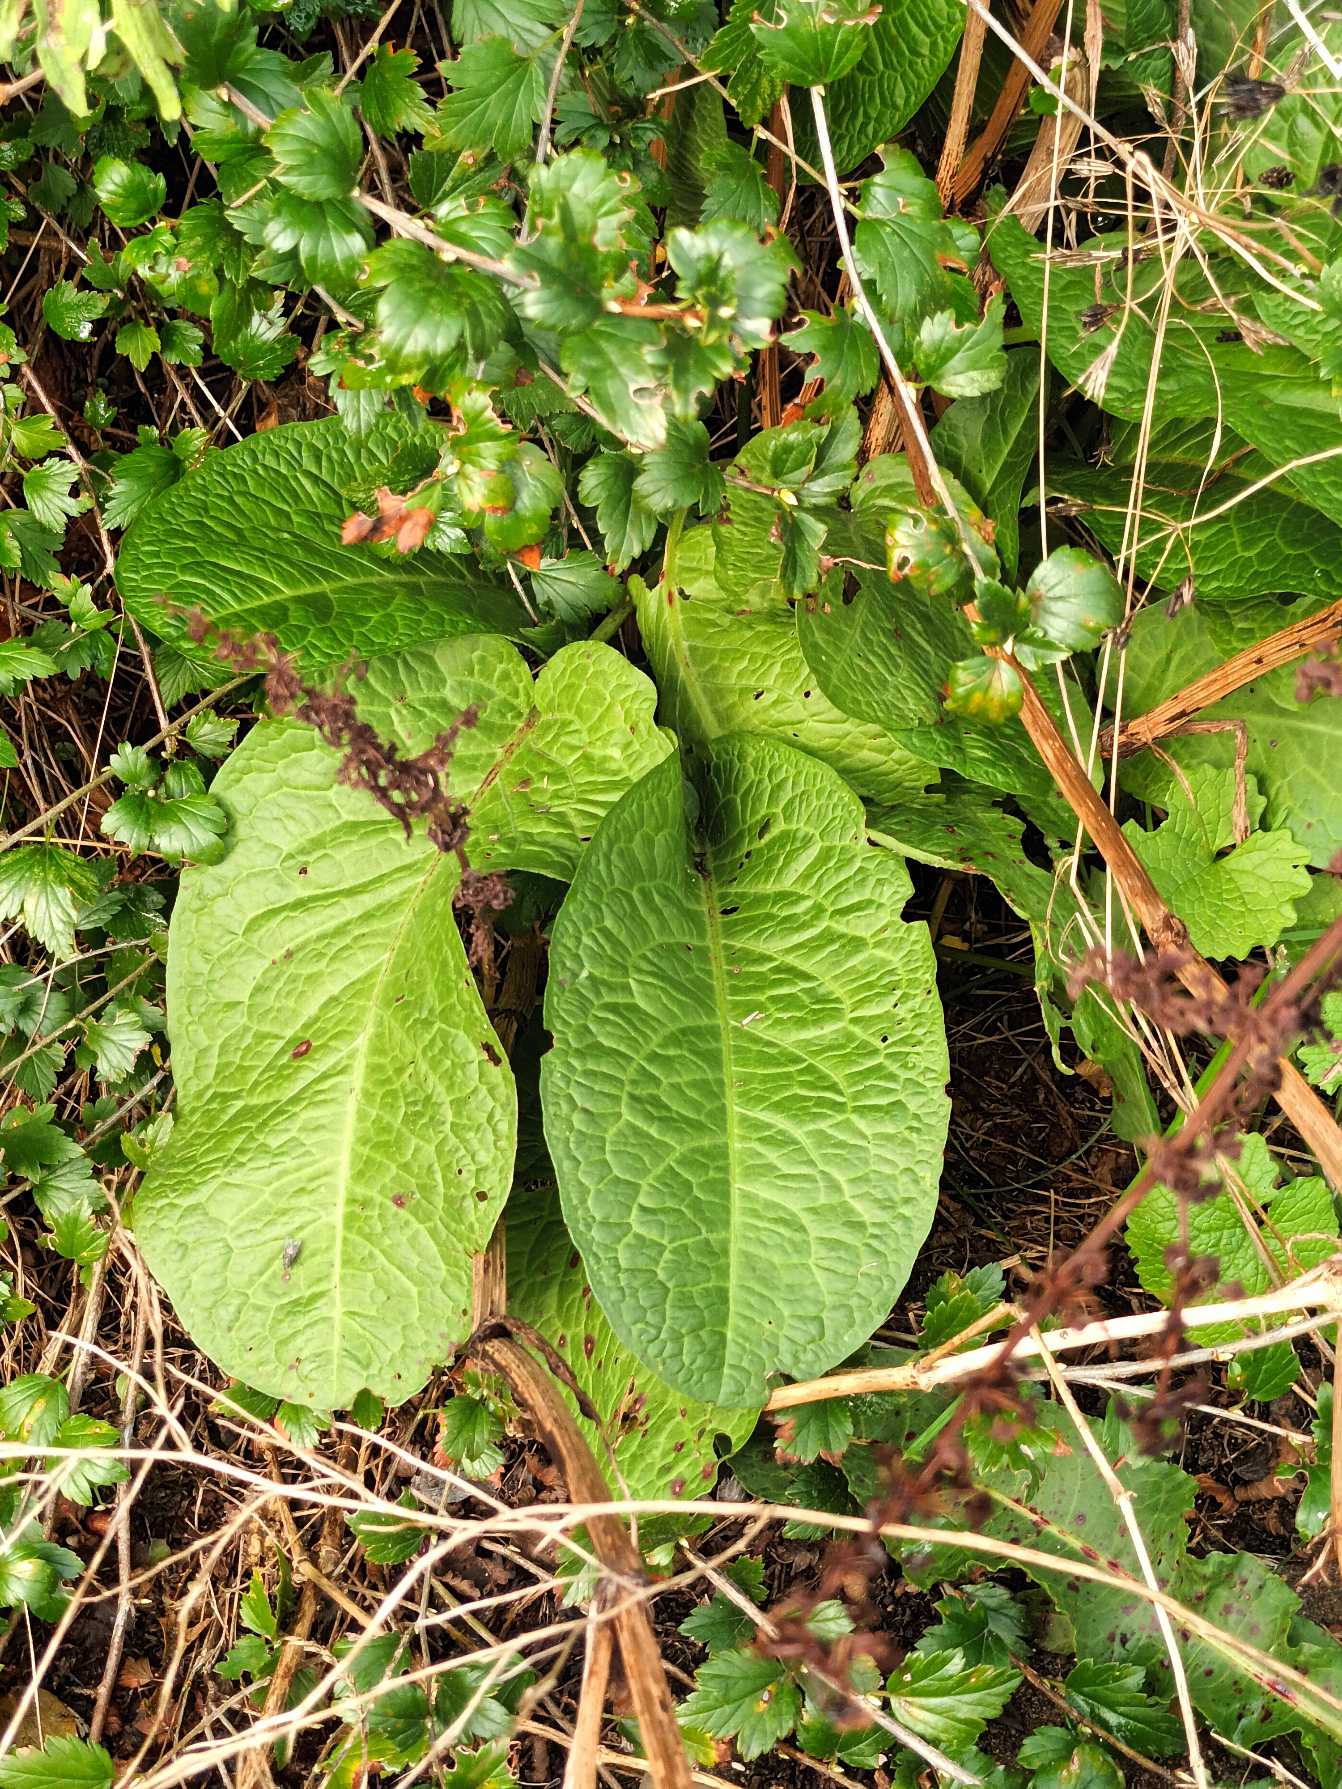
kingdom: Plantae
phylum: Tracheophyta
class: Magnoliopsida
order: Caryophyllales
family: Polygonaceae
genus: Rumex
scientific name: Rumex obtusifolius
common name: Butbladet skræppe
